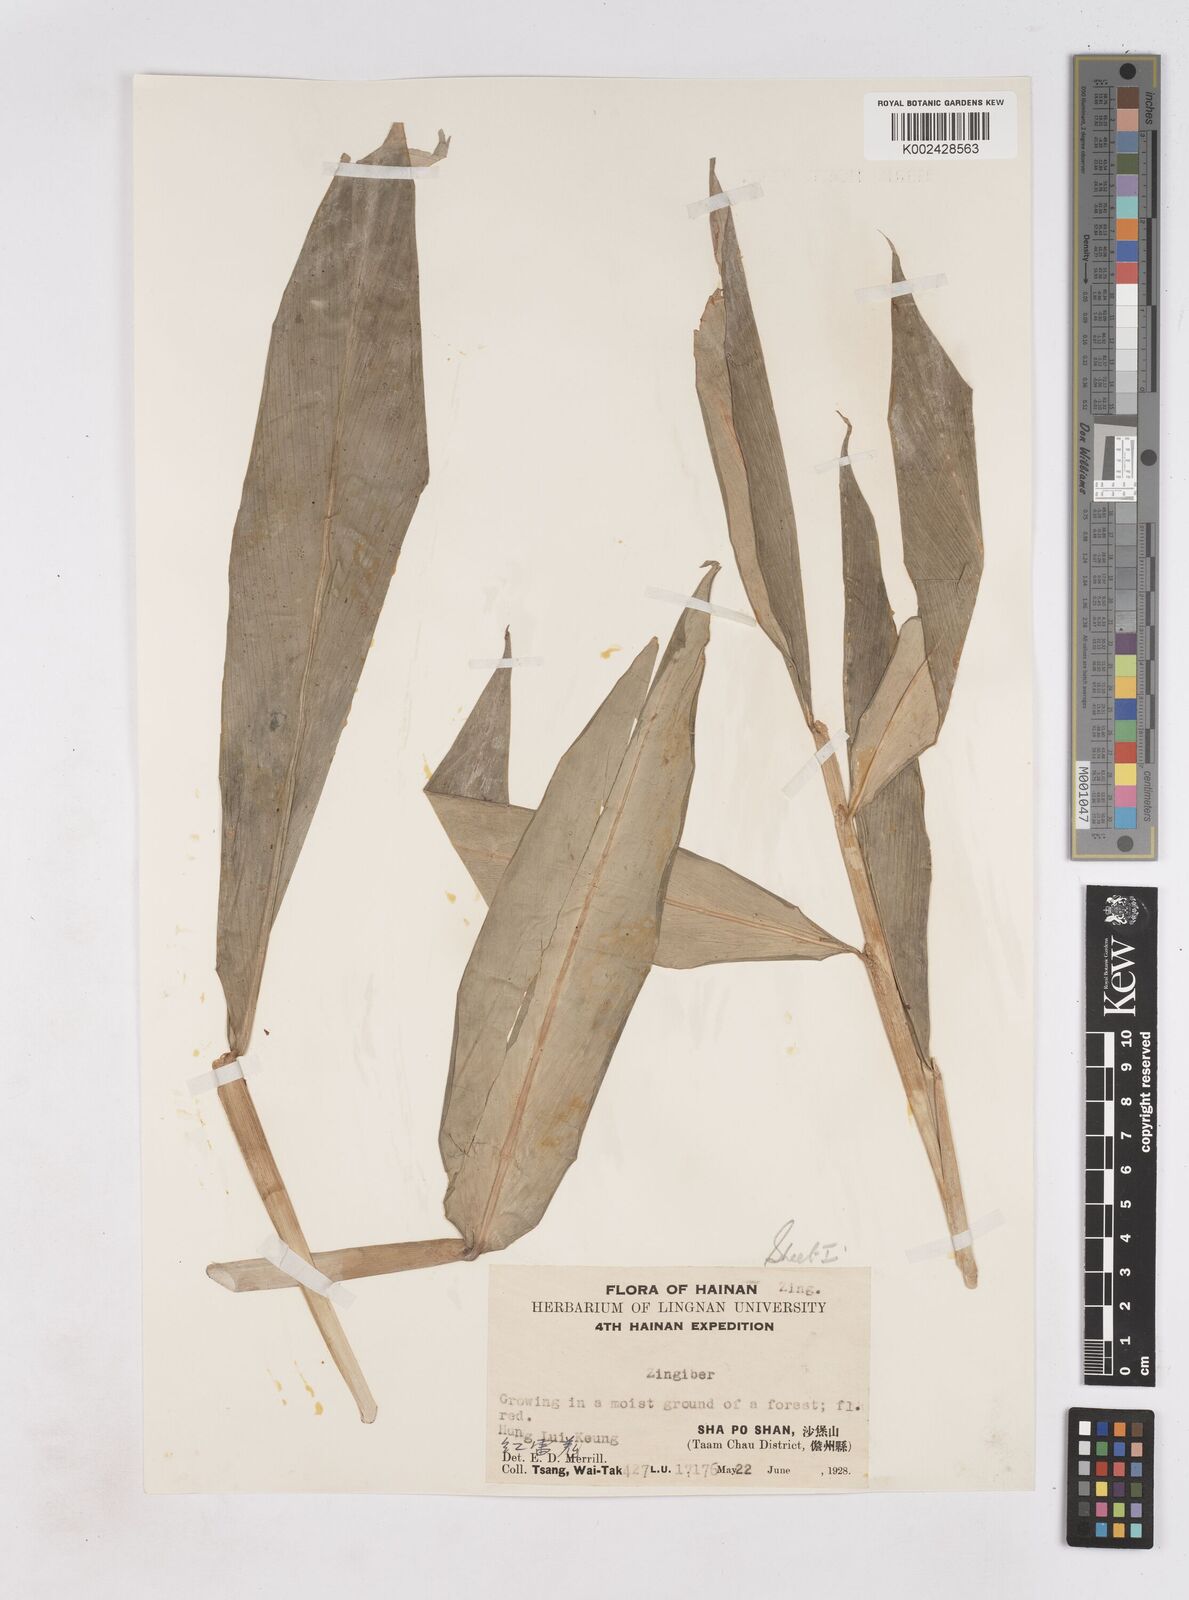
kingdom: Plantae
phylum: Tracheophyta
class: Liliopsida
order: Zingiberales
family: Zingiberaceae
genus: Zingiber
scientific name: Zingiber
